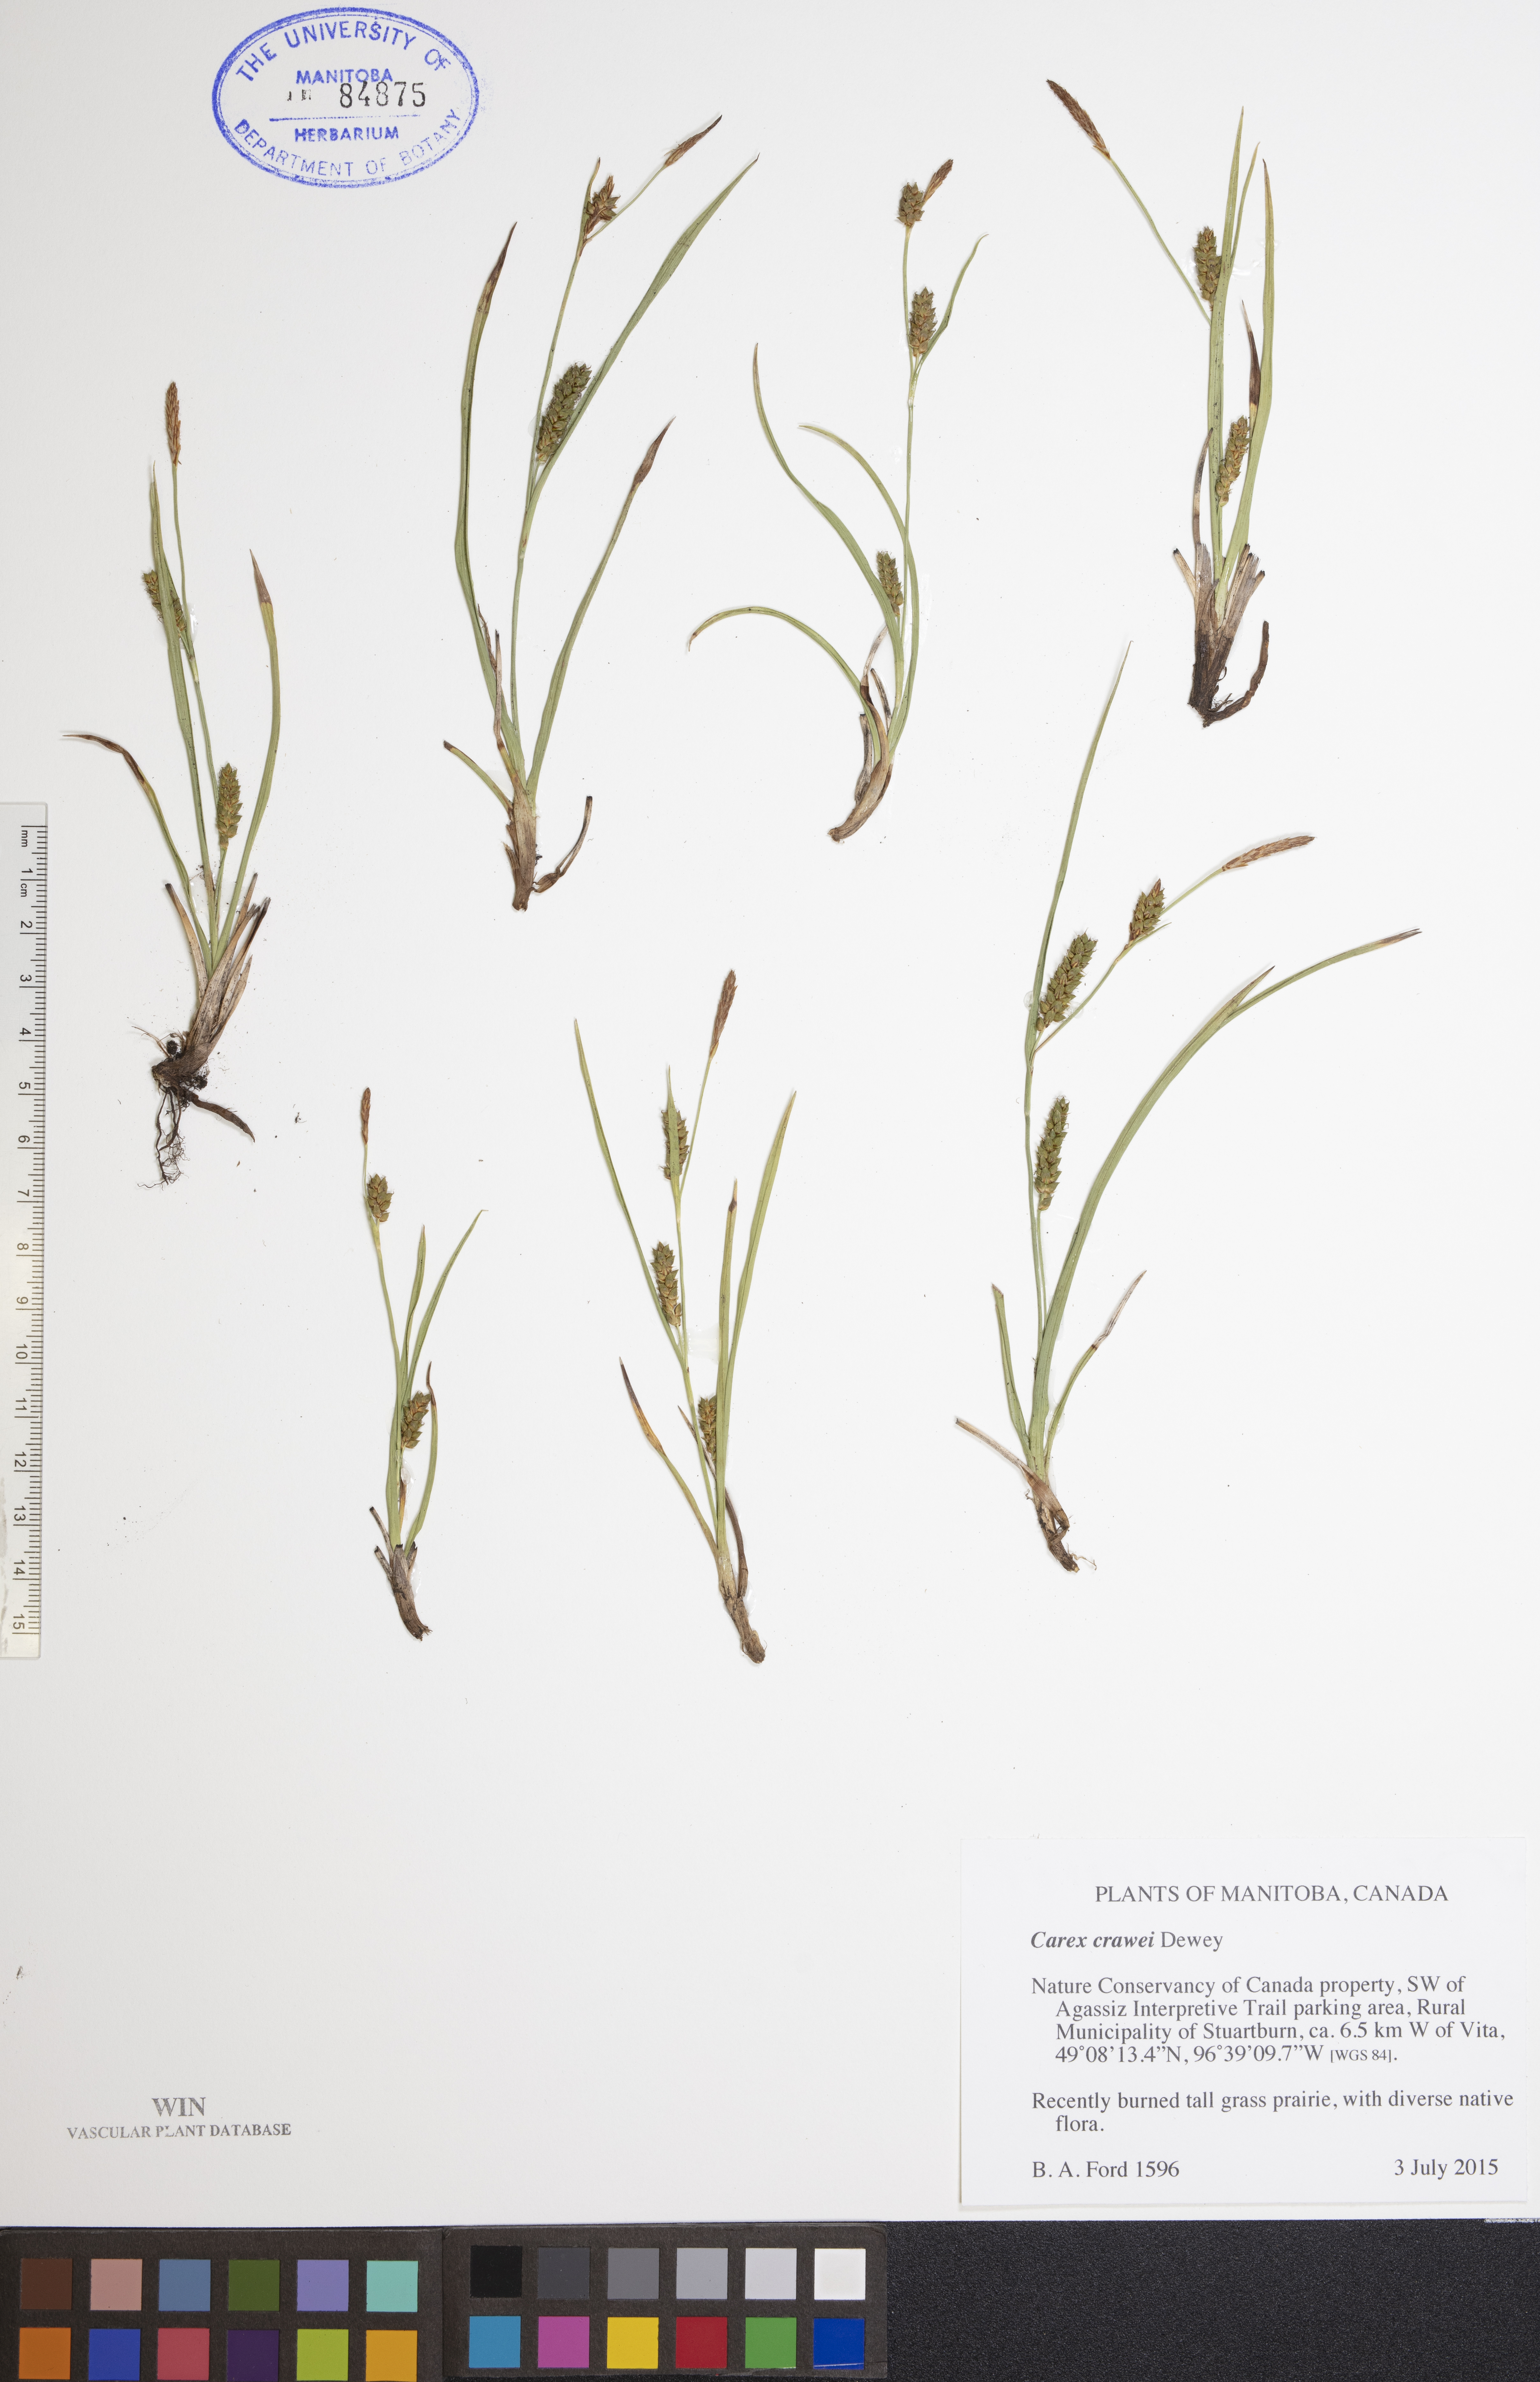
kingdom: Plantae
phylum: Tracheophyta
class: Liliopsida
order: Poales
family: Cyperaceae
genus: Carex
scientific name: Carex crawei
